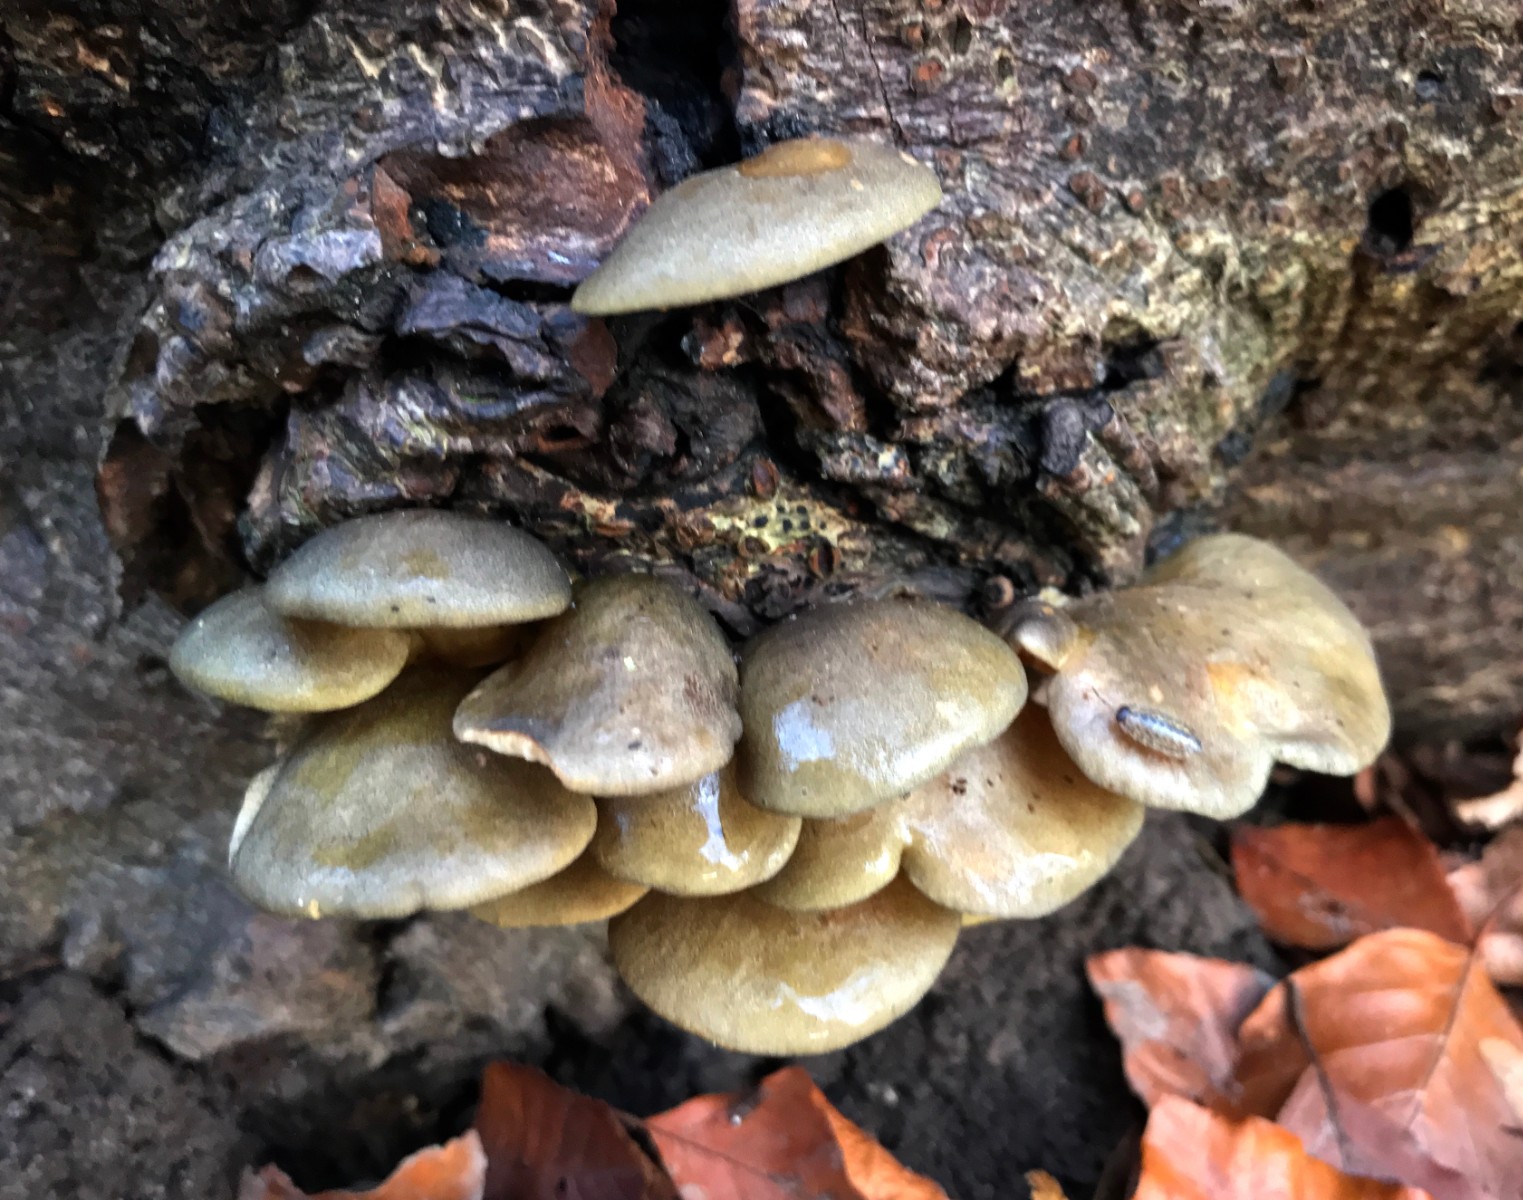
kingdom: Fungi
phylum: Basidiomycota
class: Agaricomycetes
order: Agaricales
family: Sarcomyxaceae
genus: Sarcomyxa
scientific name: Sarcomyxa serotina
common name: gummihat
